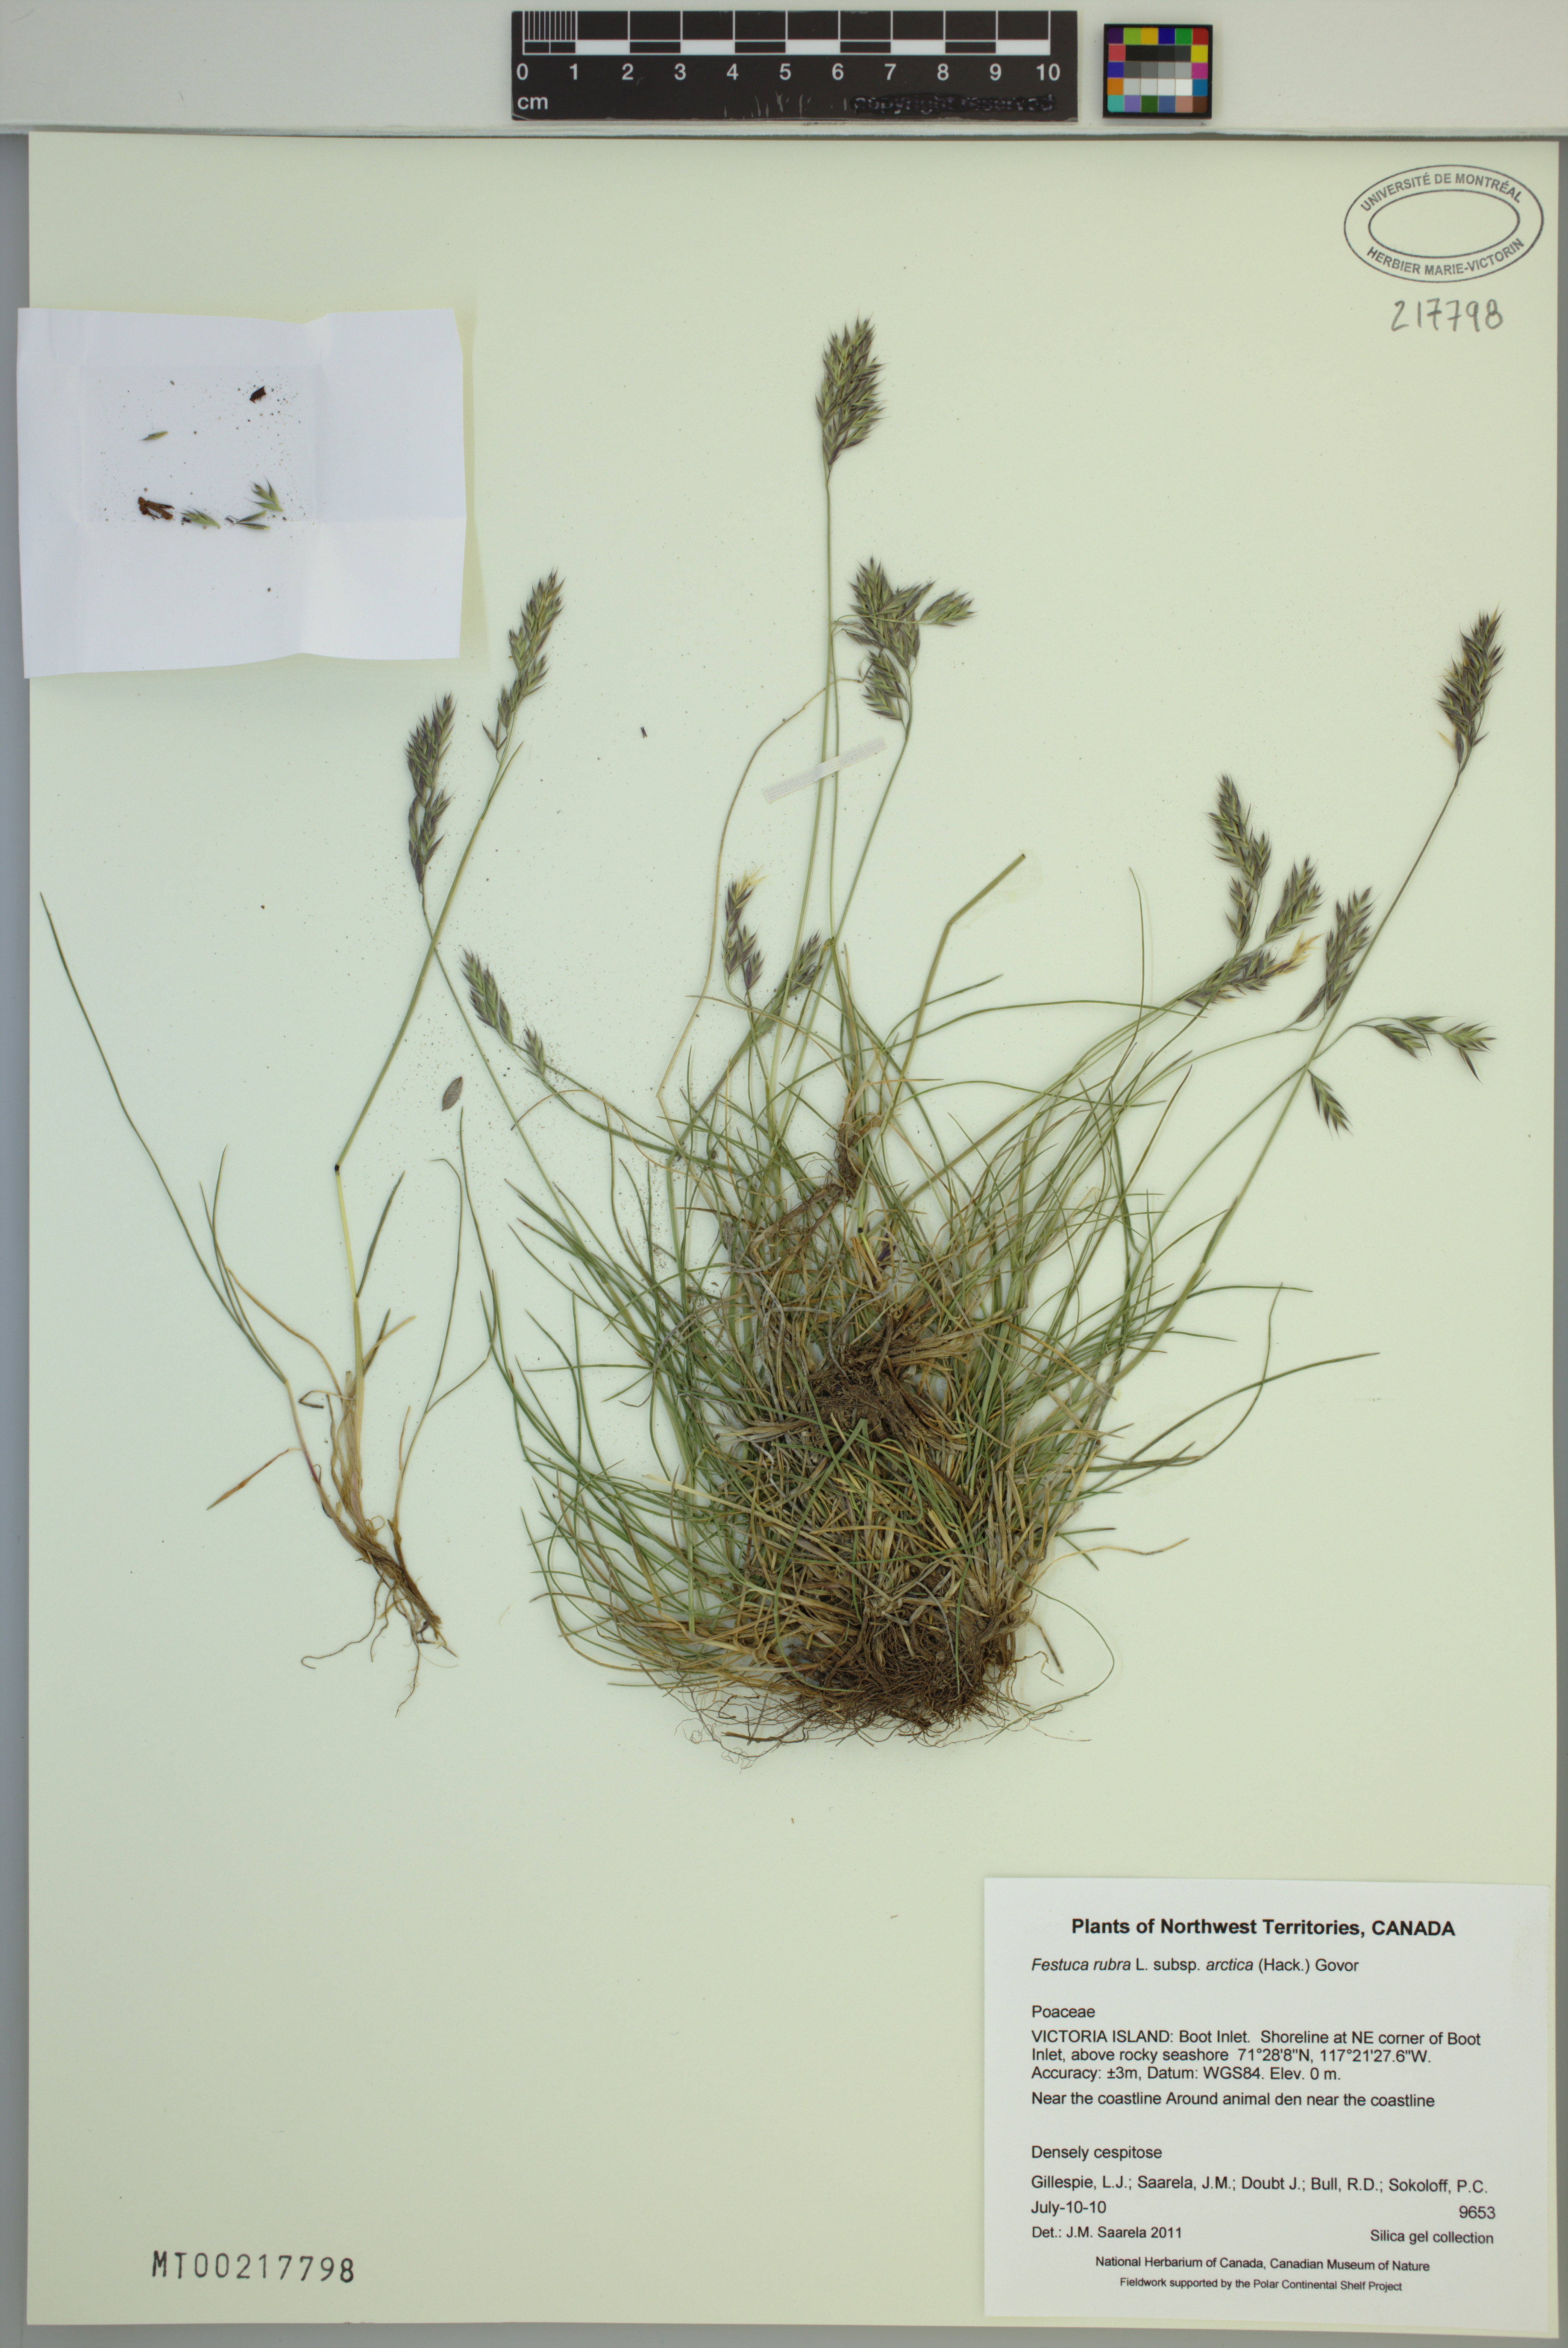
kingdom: Plantae
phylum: Tracheophyta
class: Liliopsida
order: Poales
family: Poaceae
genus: Festuca
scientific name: Festuca richardsonii
